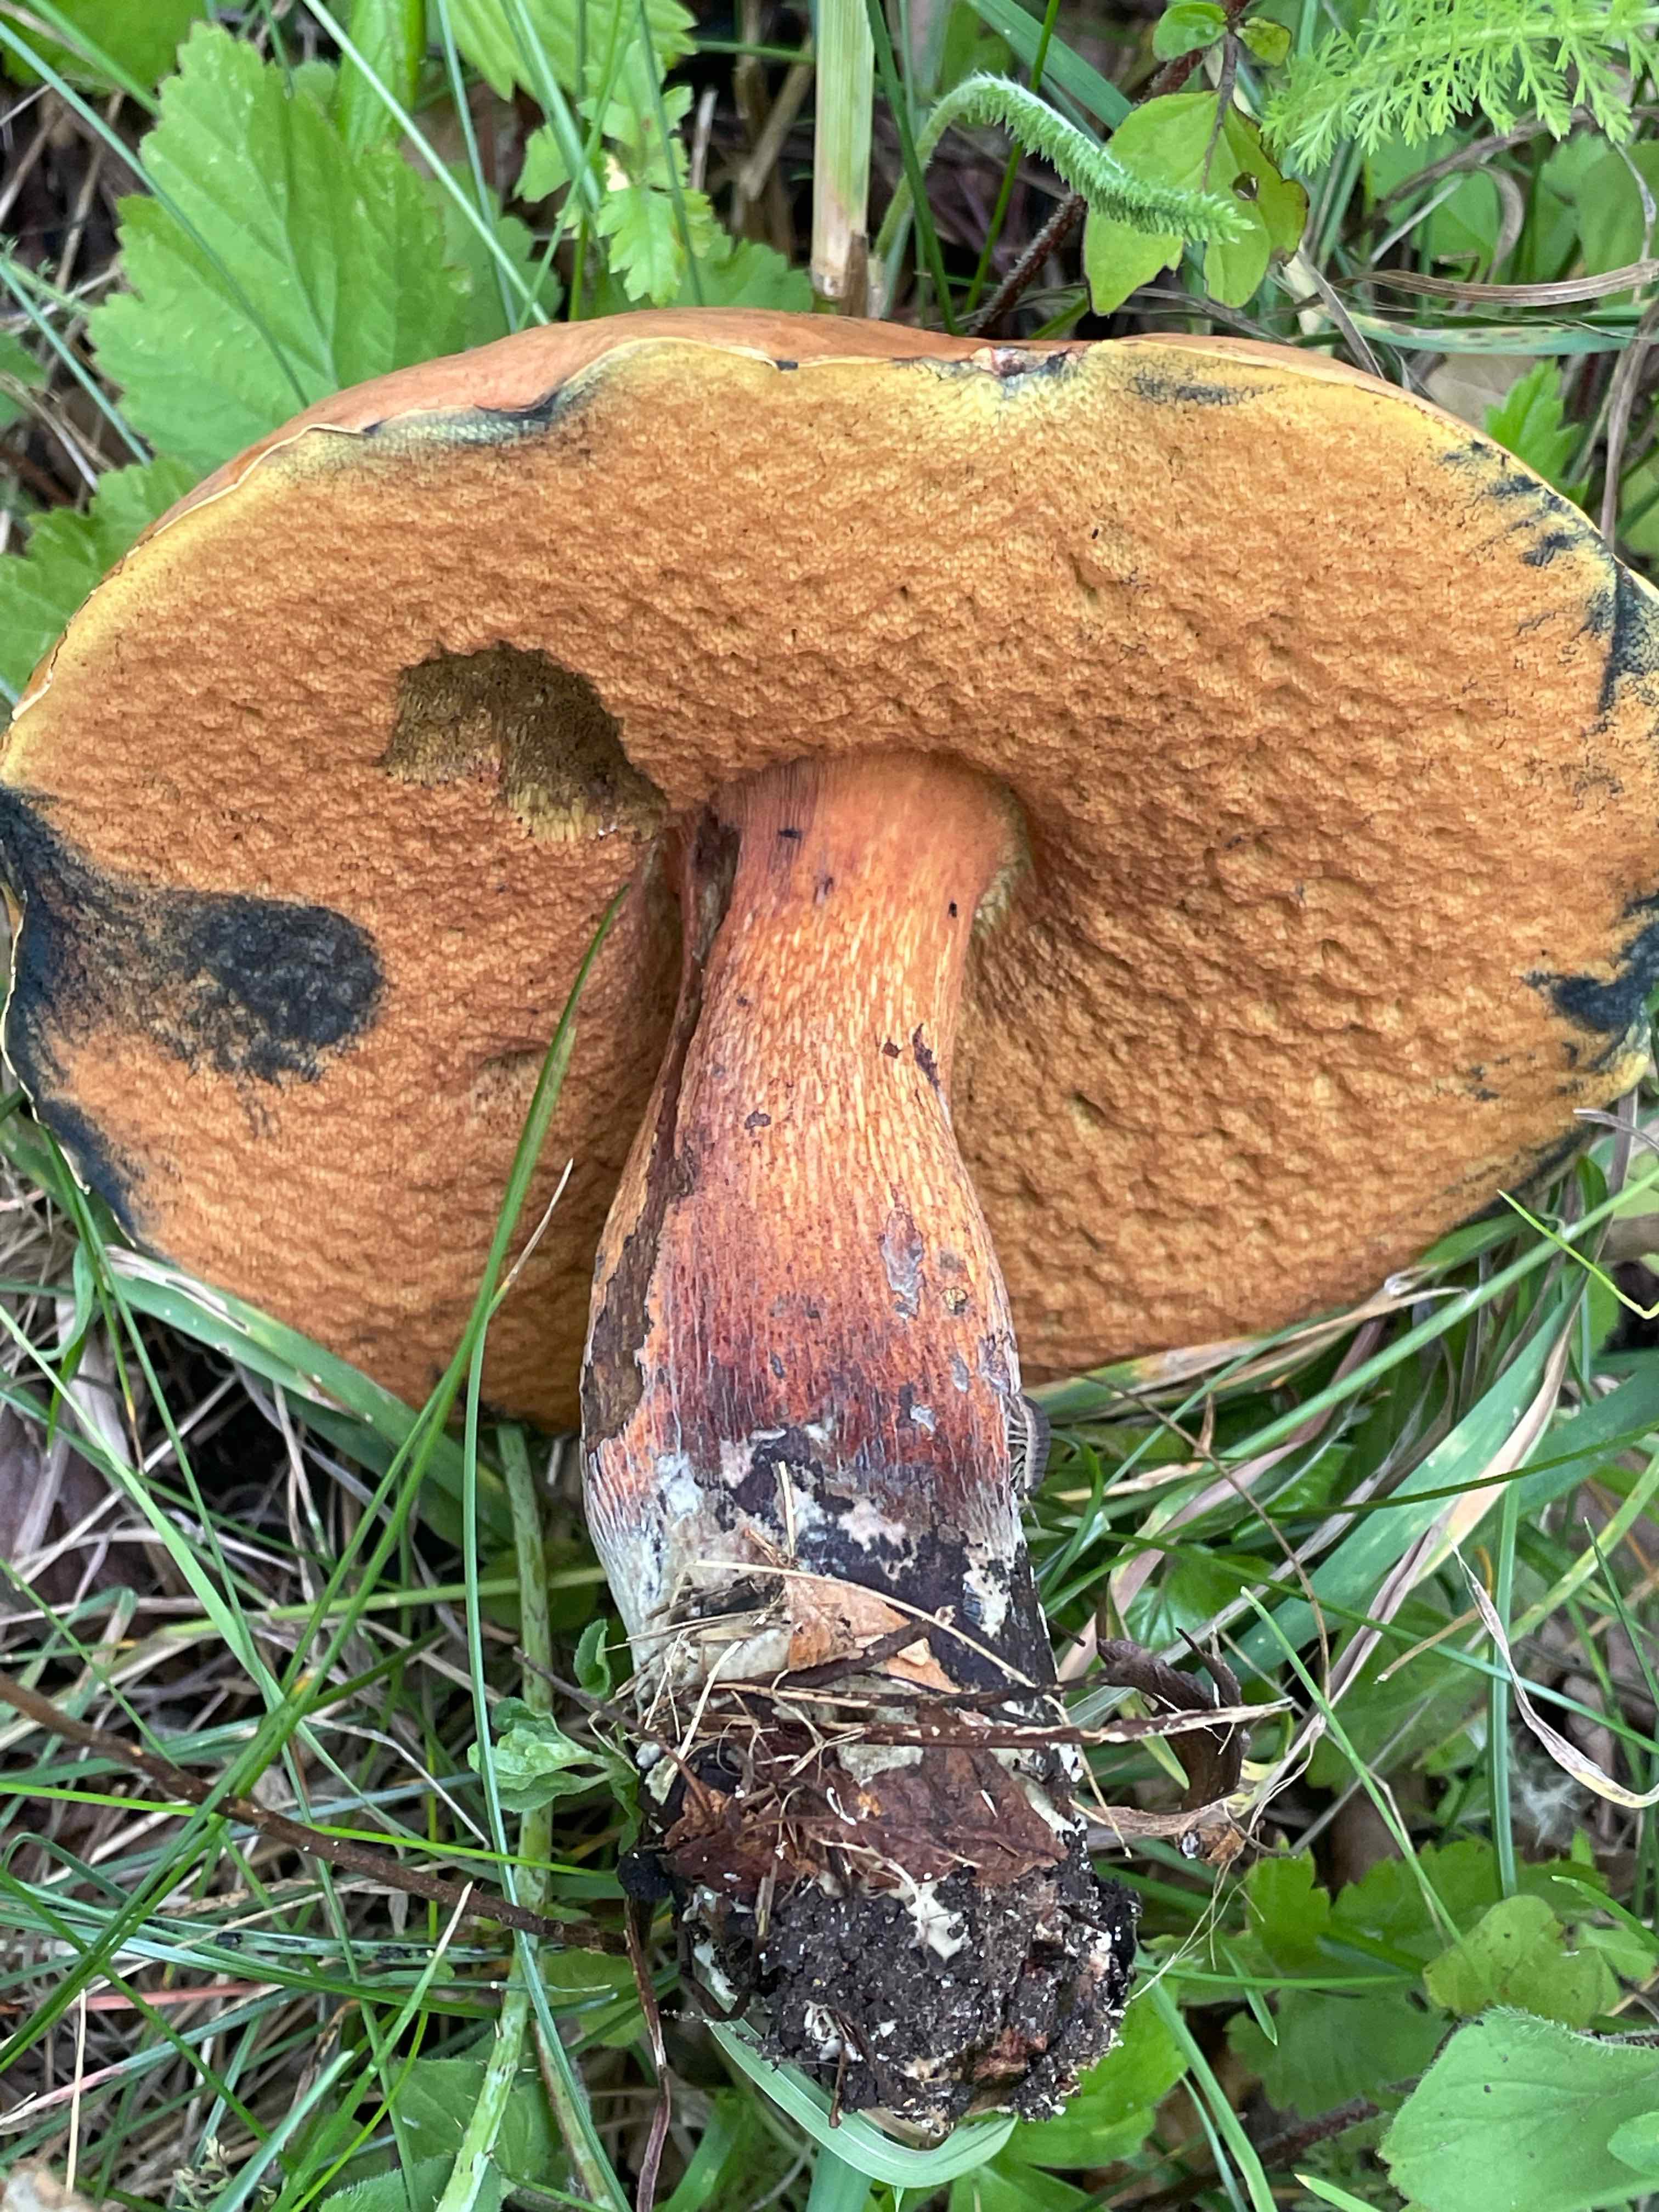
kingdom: Fungi
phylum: Basidiomycota
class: Agaricomycetes
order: Boletales
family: Boletaceae
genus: Suillellus
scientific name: Suillellus luridus
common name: netstokket indigorørhat
